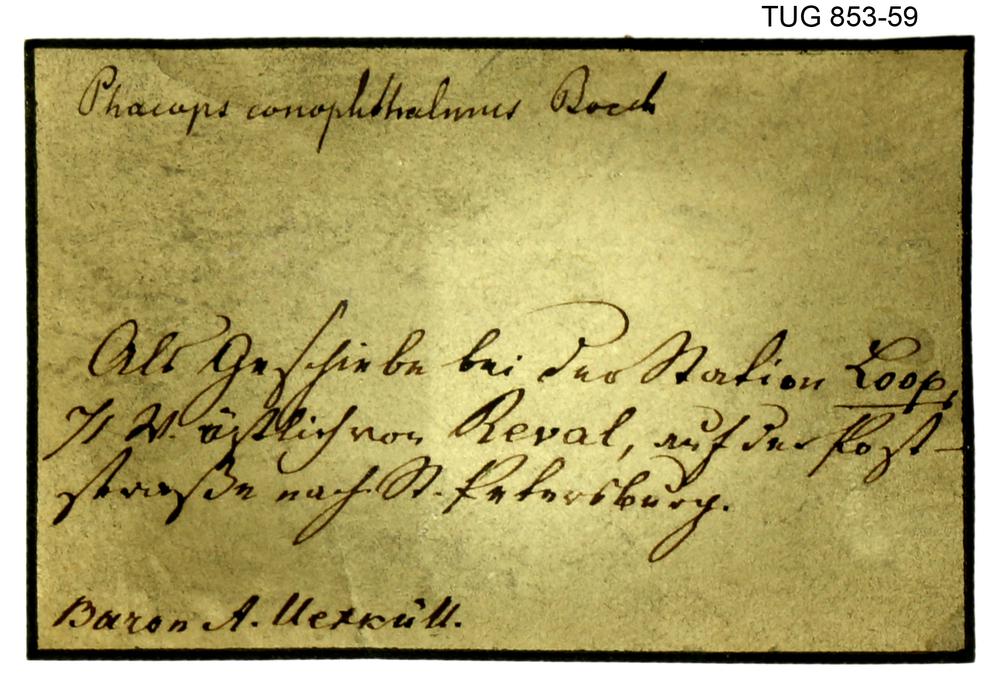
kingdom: Animalia
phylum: Arthropoda
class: Trilobita
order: Phacopida
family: Calymenidae
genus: Calymene
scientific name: Calymene
